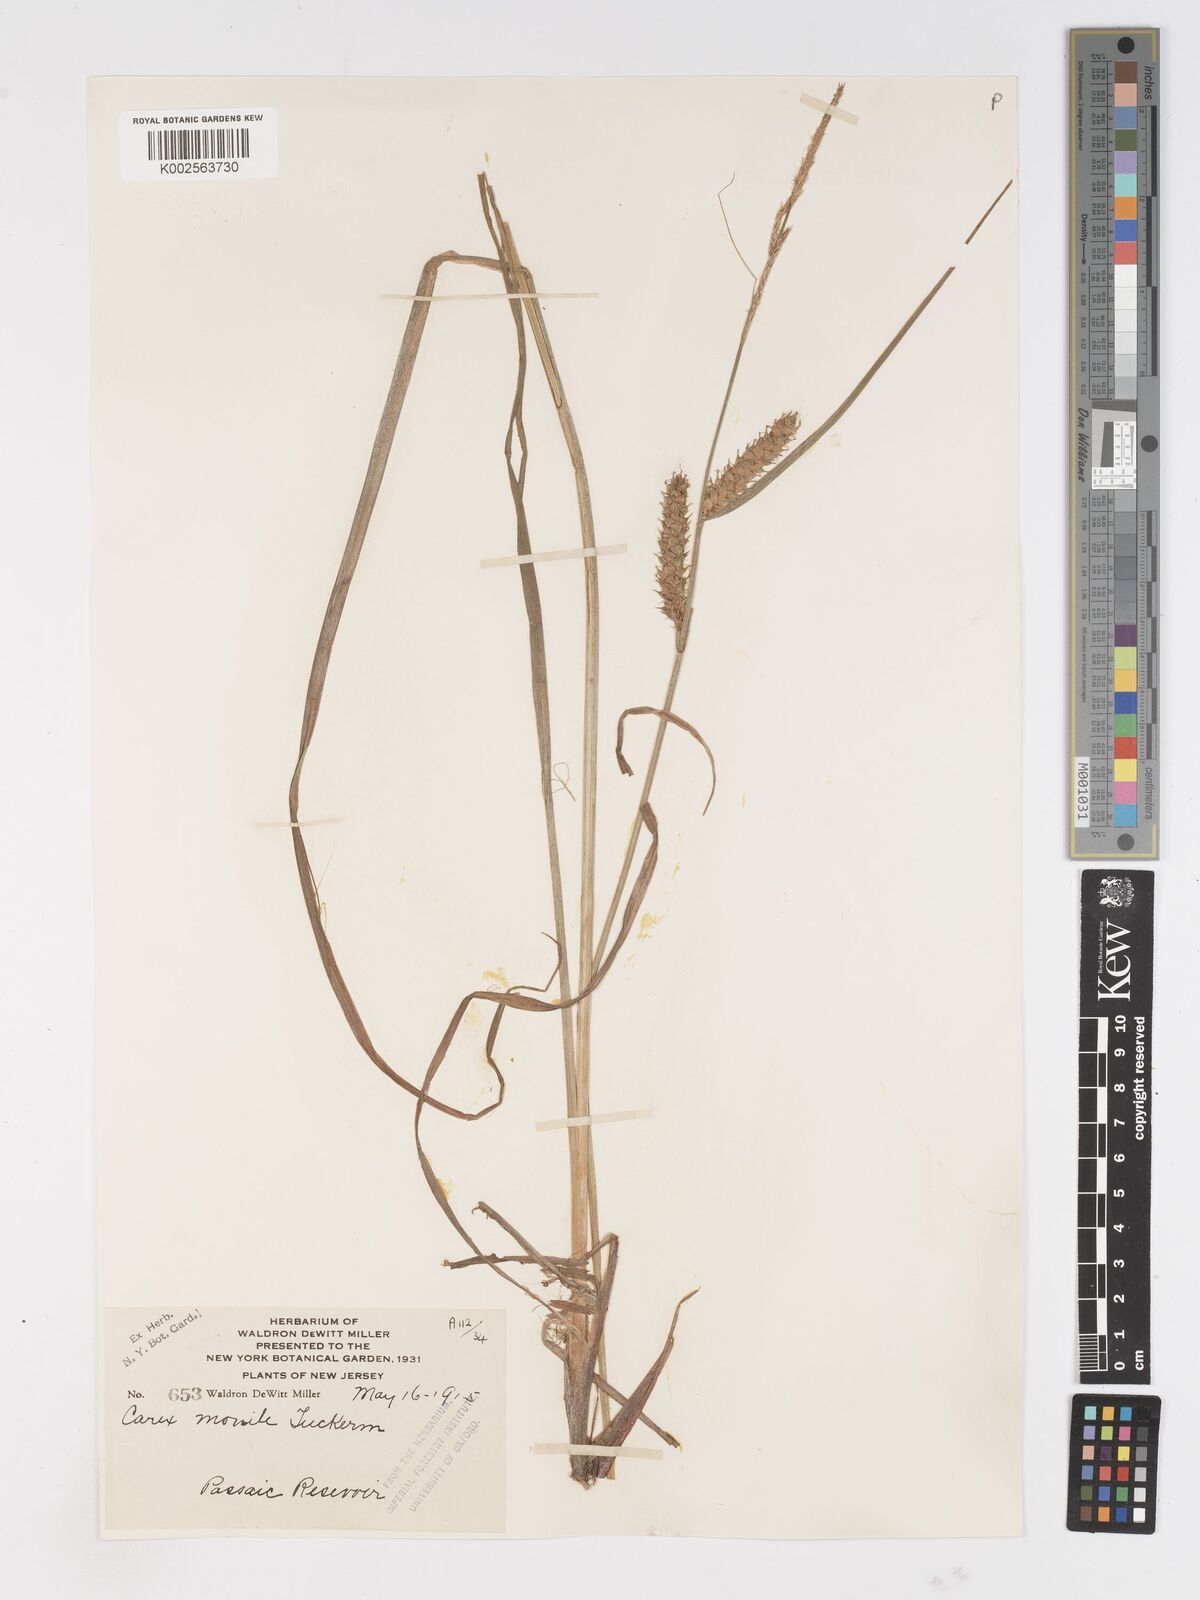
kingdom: Plantae
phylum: Tracheophyta
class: Liliopsida
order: Poales
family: Cyperaceae
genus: Carex
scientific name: Carex vesicaria
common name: Bladder-sedge
